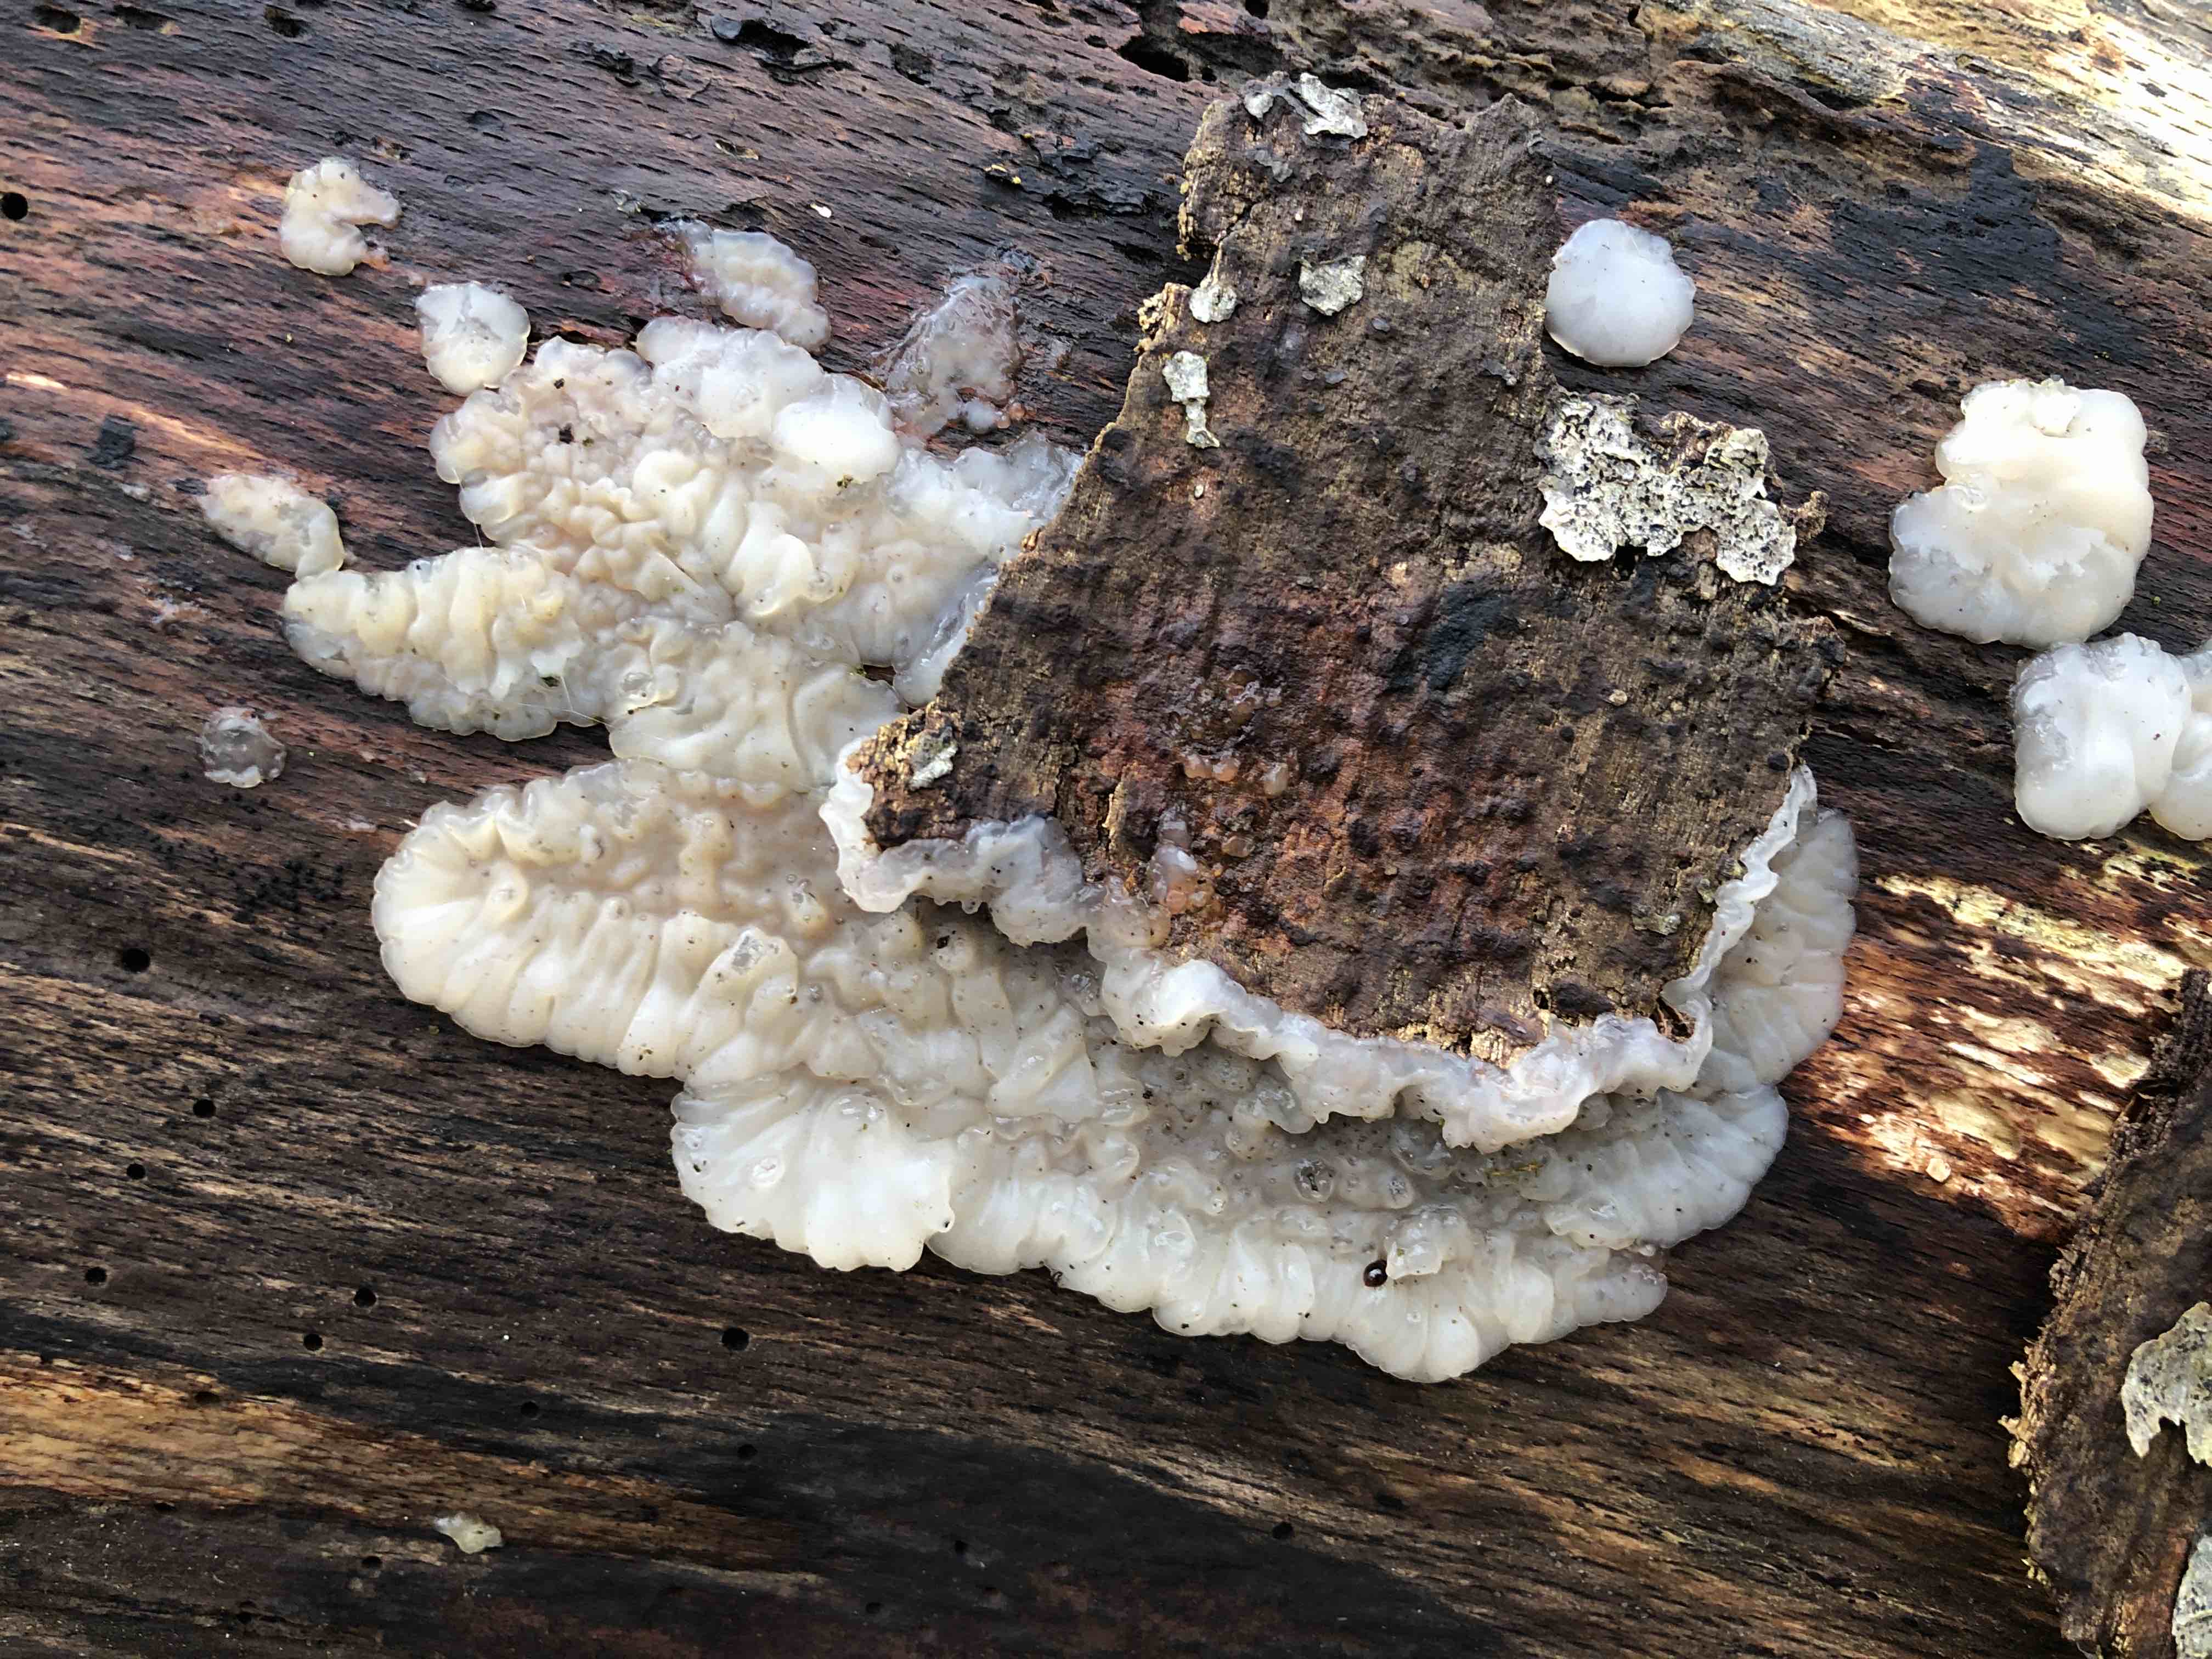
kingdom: Fungi
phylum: Basidiomycota
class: Agaricomycetes
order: Auriculariales
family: Auriculariaceae
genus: Exidia
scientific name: Exidia thuretiana
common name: hvidlig bævretop
